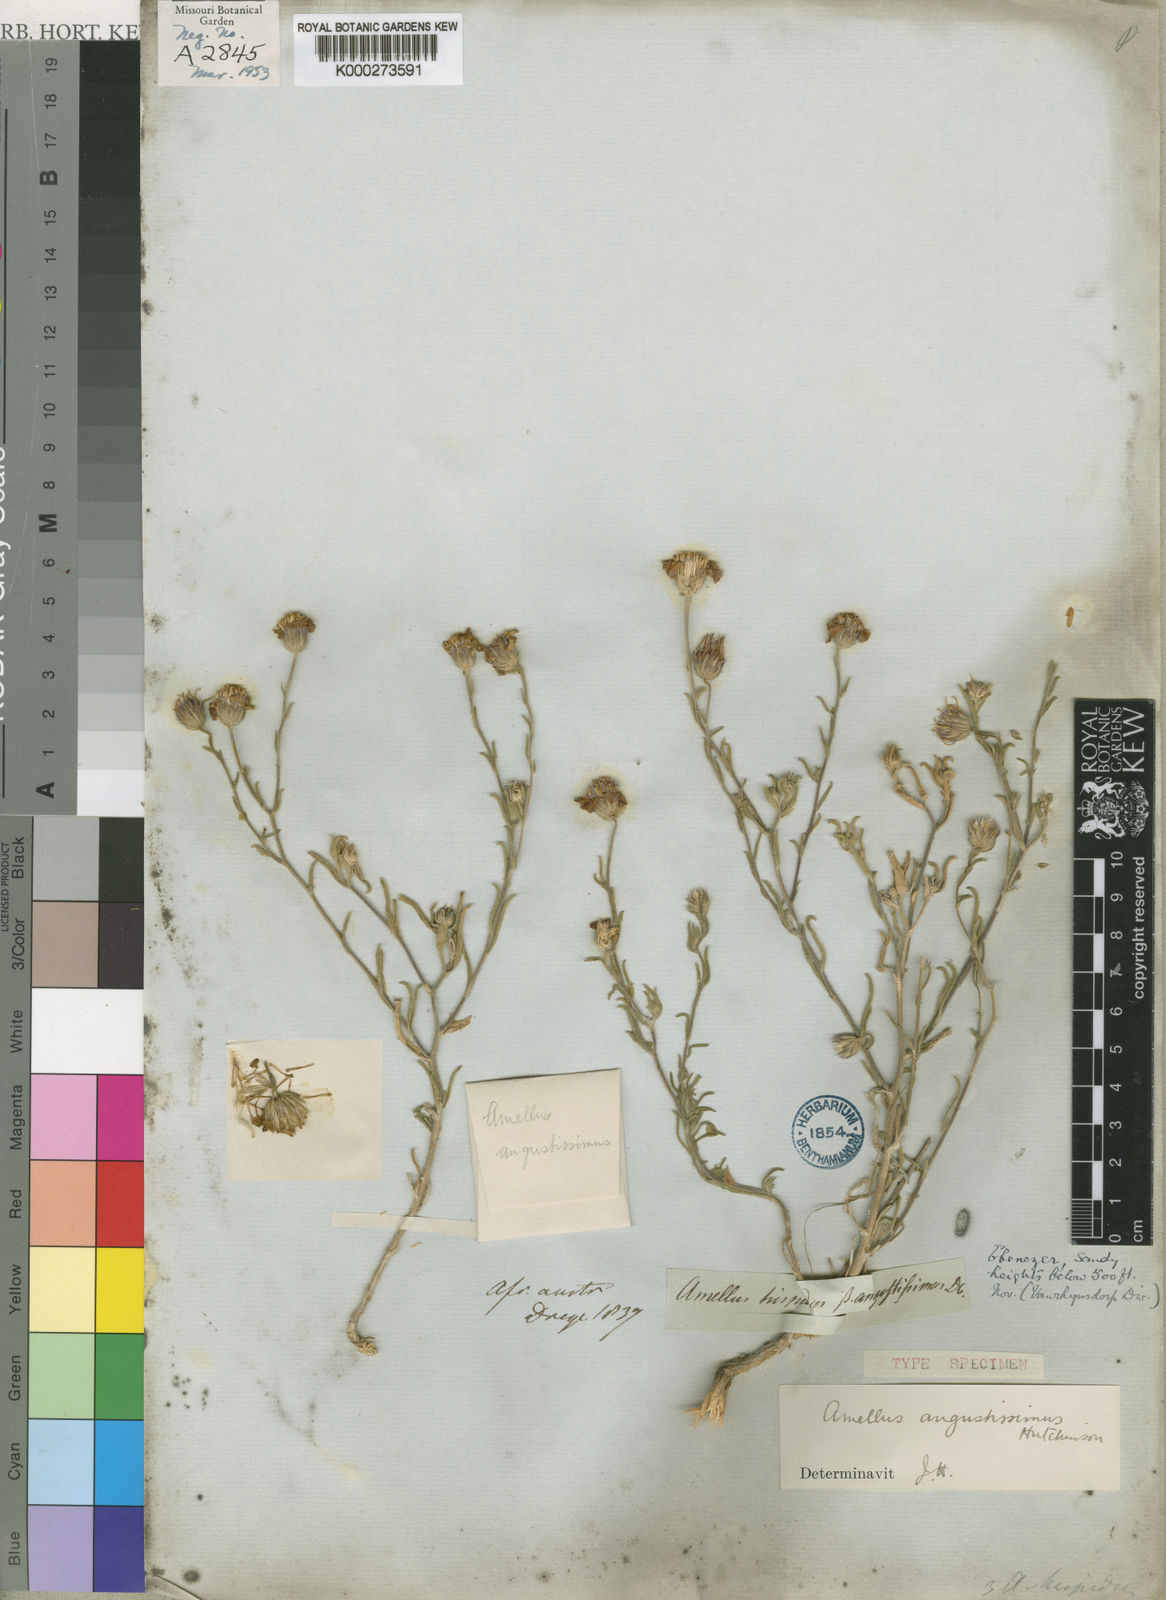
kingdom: Plantae
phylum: Tracheophyta
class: Magnoliopsida
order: Asterales
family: Asteraceae
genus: Amellus
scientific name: Amellus alternifolius
